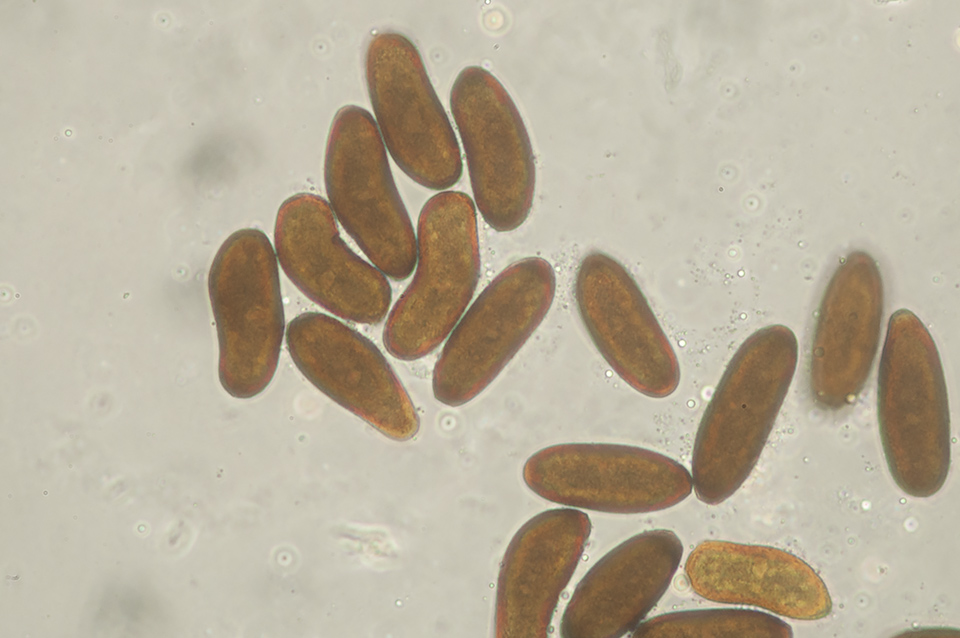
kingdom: Fungi
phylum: Ascomycota
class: Dothideomycetes
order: Botryosphaeriales
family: Botryosphaeriaceae
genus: Sphaeropsis
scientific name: Sphaeropsis sapinea
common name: Sphaeropsis blight
